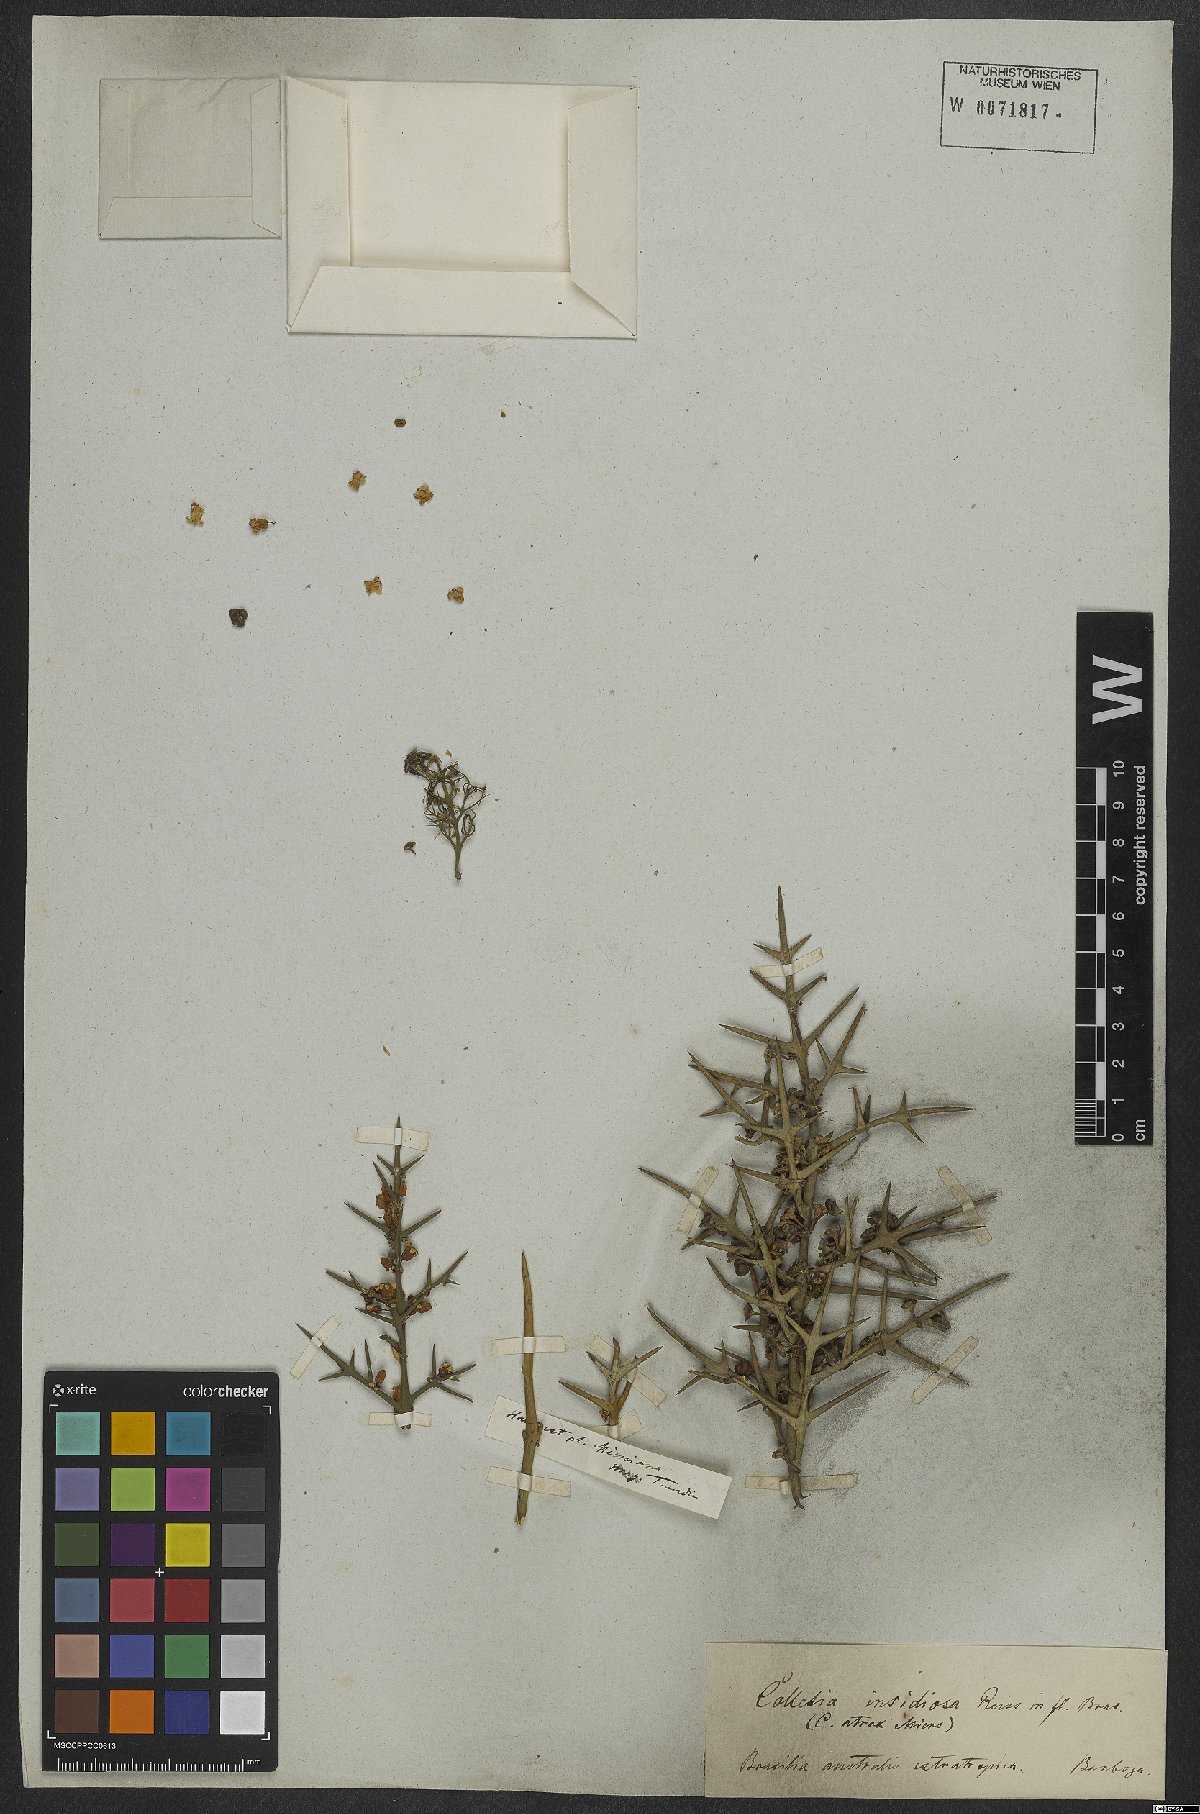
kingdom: Plantae
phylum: Tracheophyta
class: Magnoliopsida
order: Rosales
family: Rhamnaceae
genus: Colletia
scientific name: Colletia paradoxa
